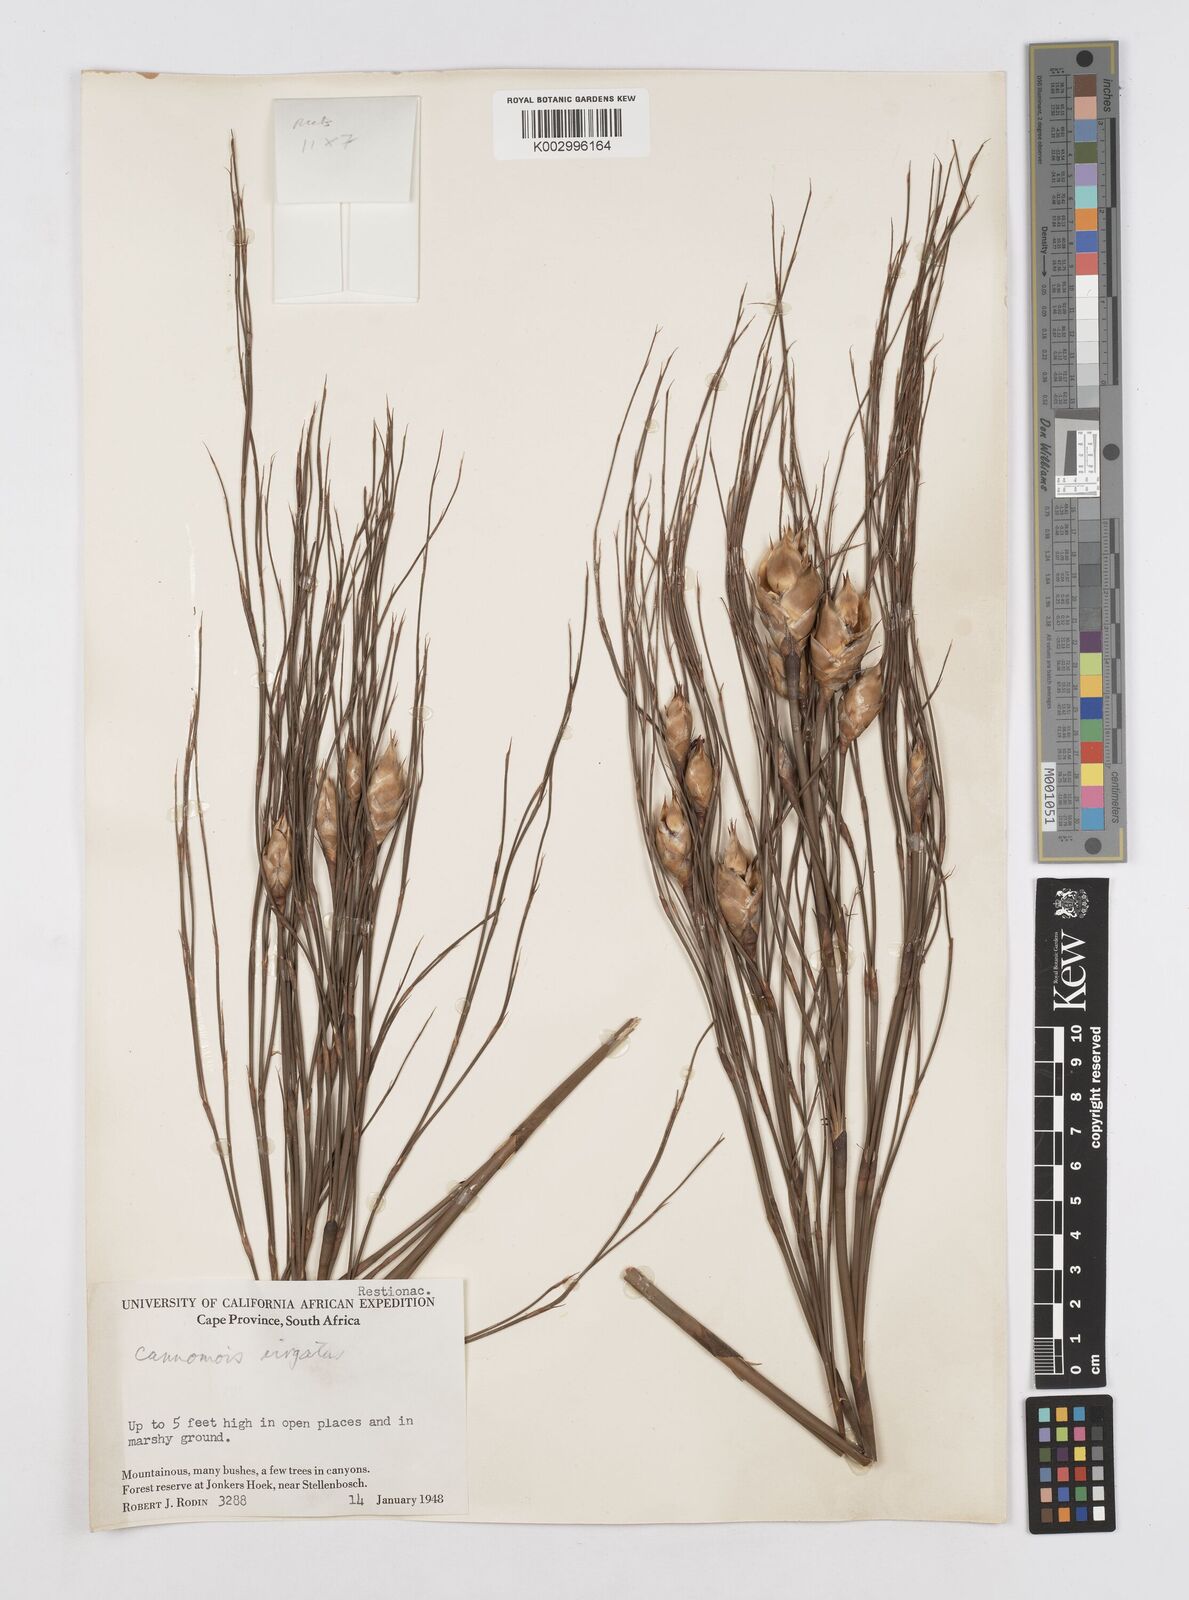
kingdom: Plantae
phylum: Tracheophyta
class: Liliopsida
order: Poales
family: Restionaceae
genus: Cannomois
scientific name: Cannomois virgata
